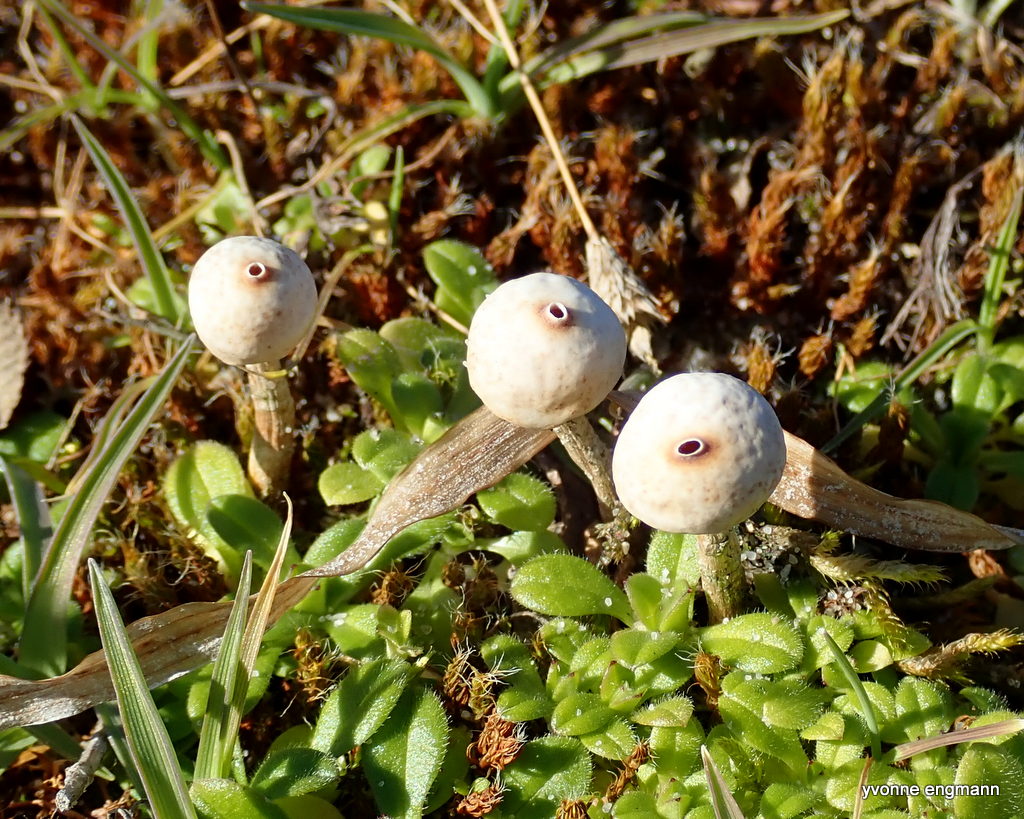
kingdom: Fungi
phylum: Basidiomycota
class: Agaricomycetes
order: Agaricales
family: Agaricaceae
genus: Tulostoma
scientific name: Tulostoma brumale
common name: vinter-stilkbovist
